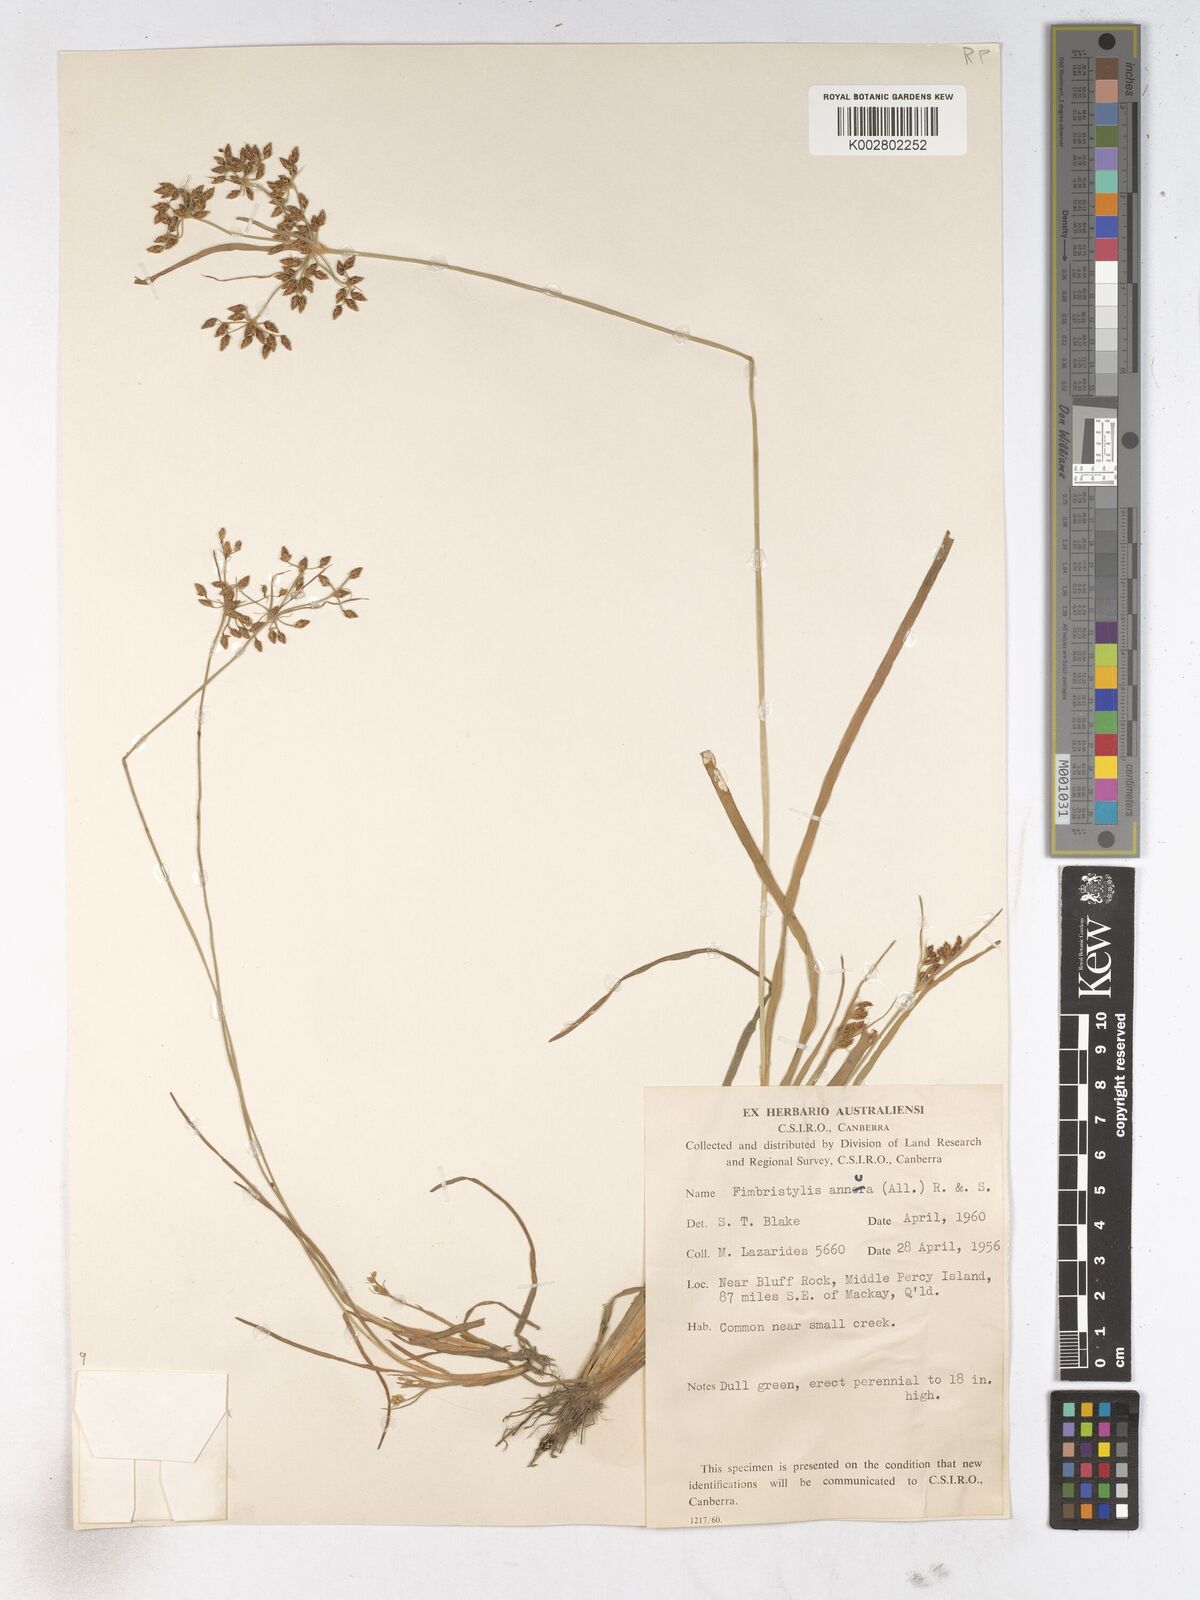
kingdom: Plantae
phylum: Tracheophyta
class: Liliopsida
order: Poales
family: Cyperaceae
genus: Fimbristylis
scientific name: Fimbristylis dichotoma
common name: Forked fimbry
